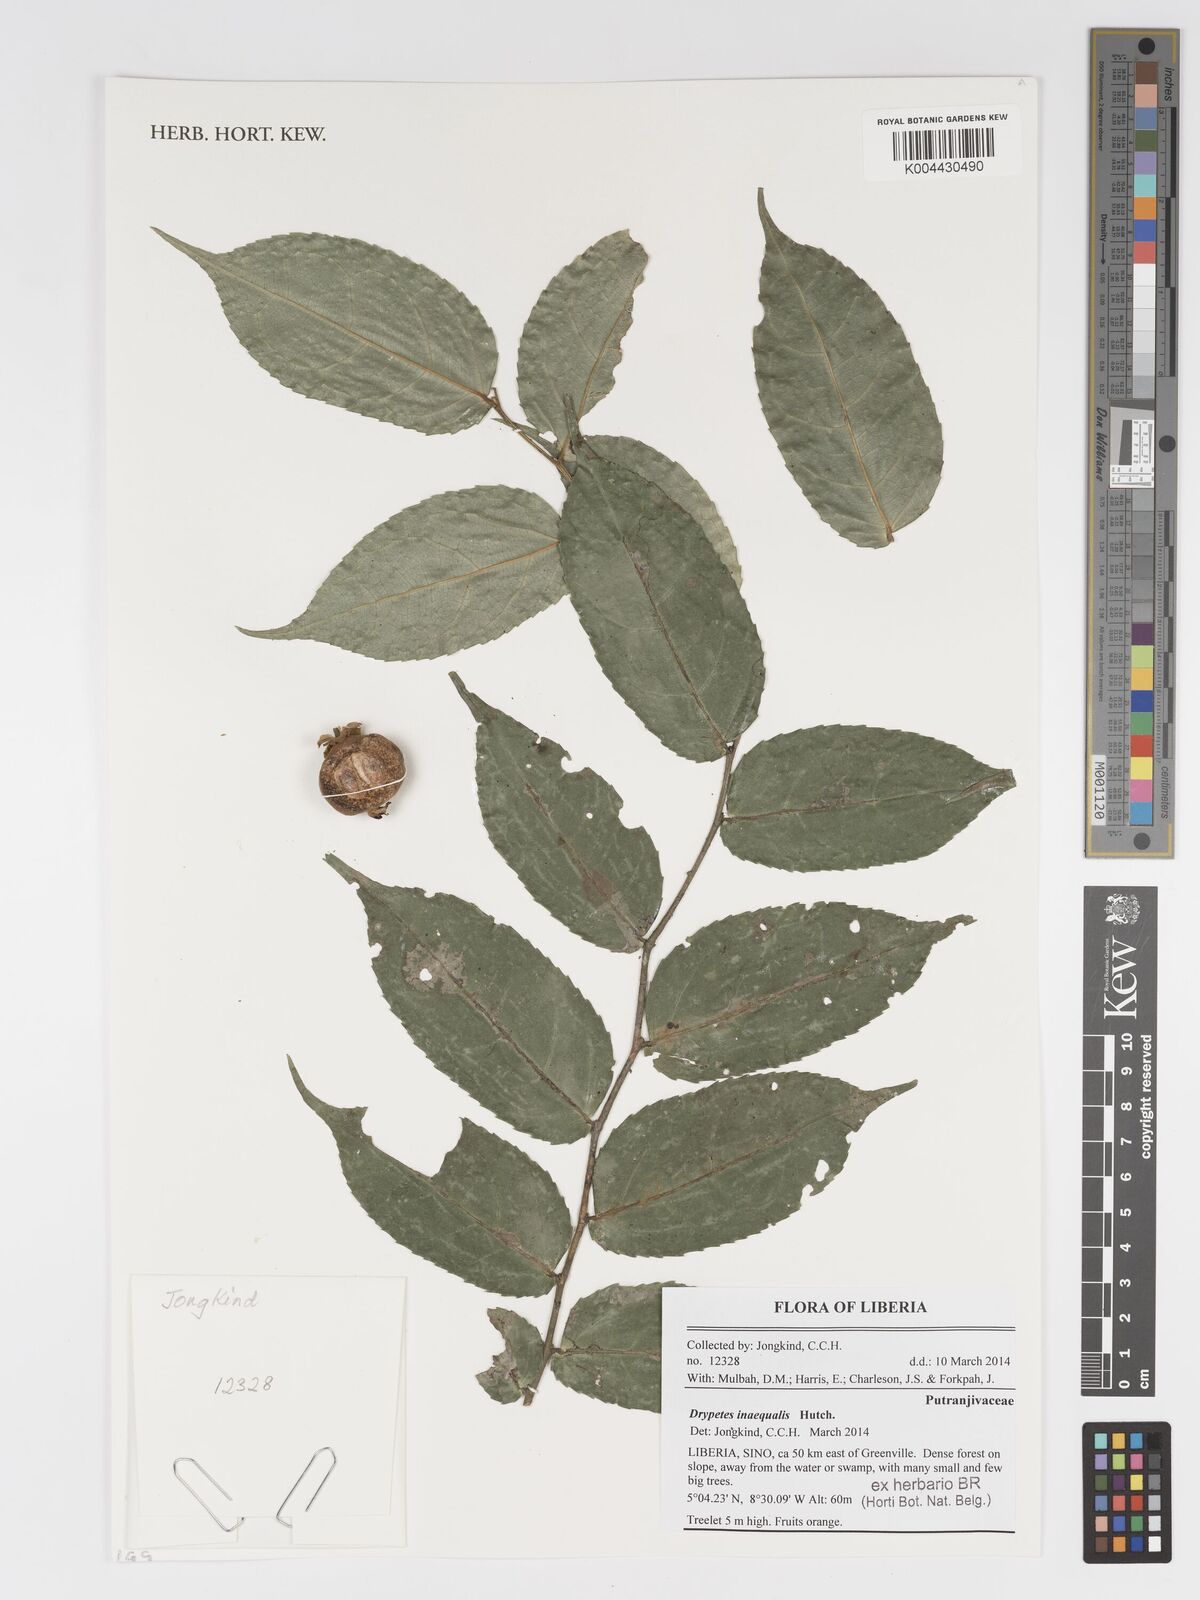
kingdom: Plantae
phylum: Tracheophyta
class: Magnoliopsida
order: Malpighiales
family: Putranjivaceae
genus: Drypetes
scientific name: Drypetes inaequalis
